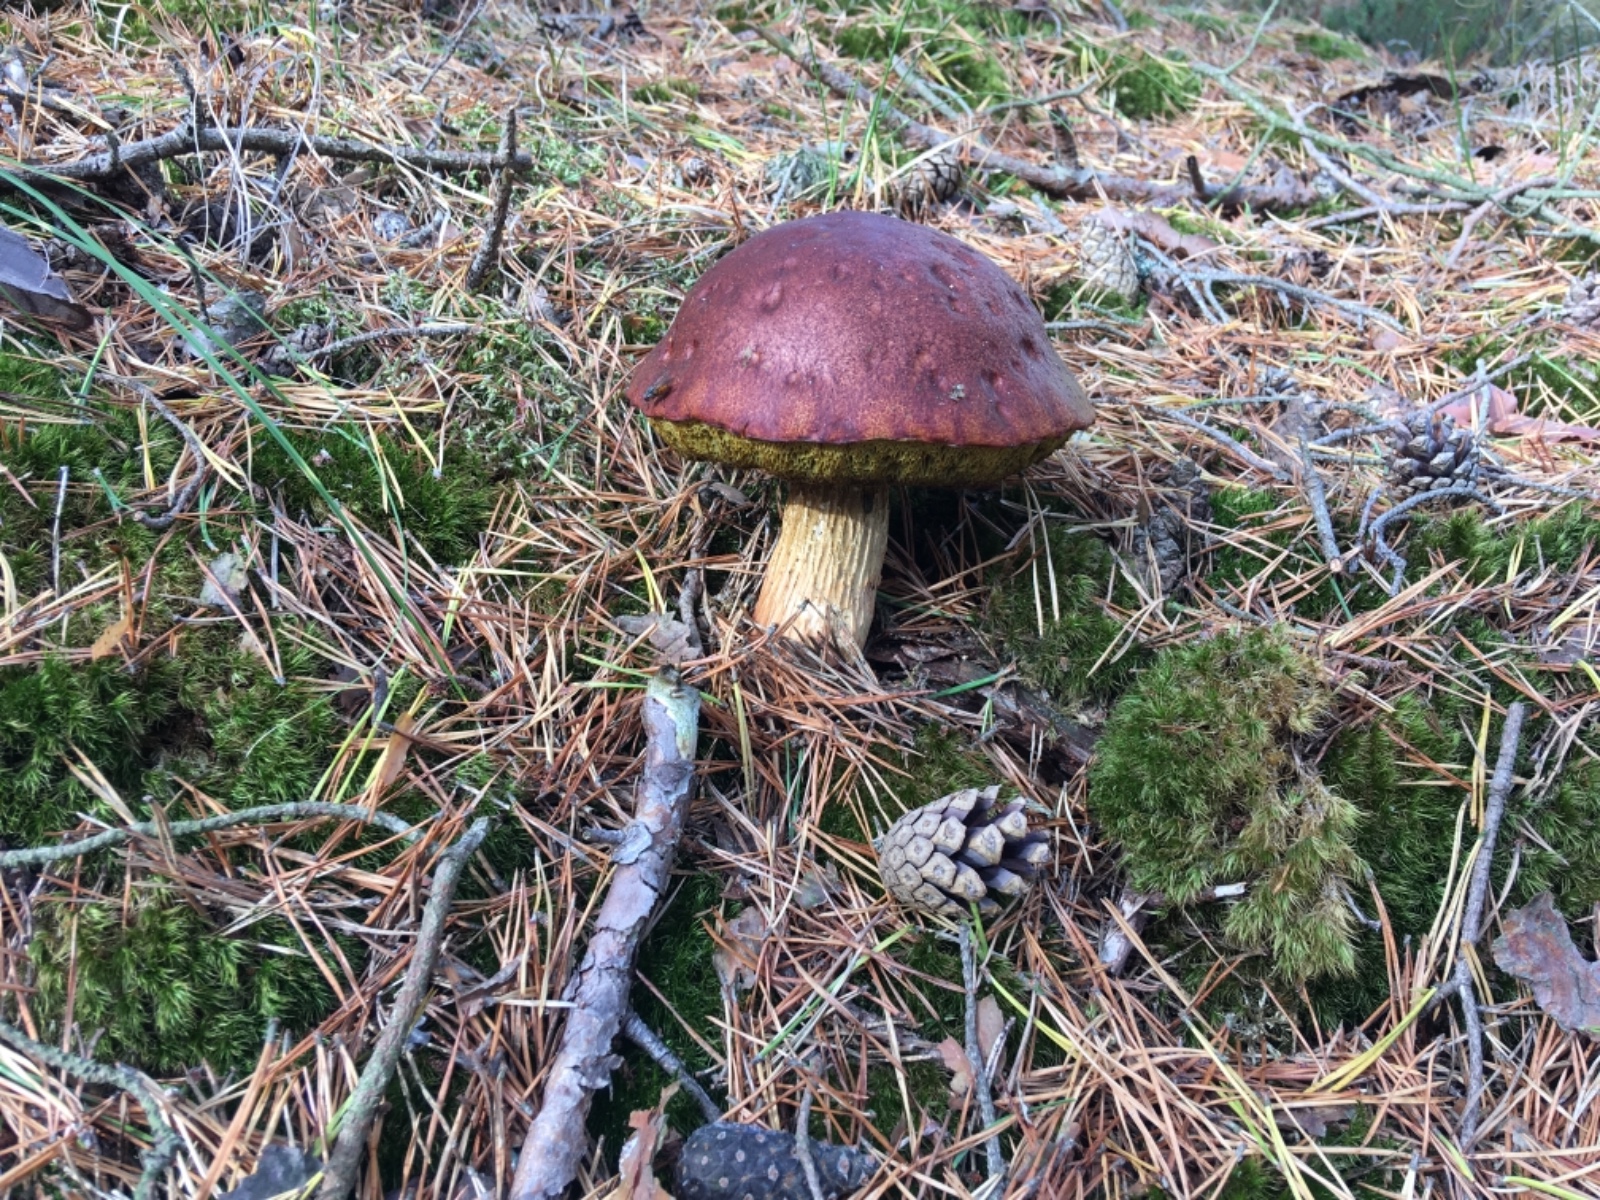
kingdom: Fungi
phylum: Basidiomycota
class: Agaricomycetes
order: Boletales
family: Boletaceae
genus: Aureoboletus
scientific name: Aureoboletus projectellus
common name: ribbestokket rørhat
